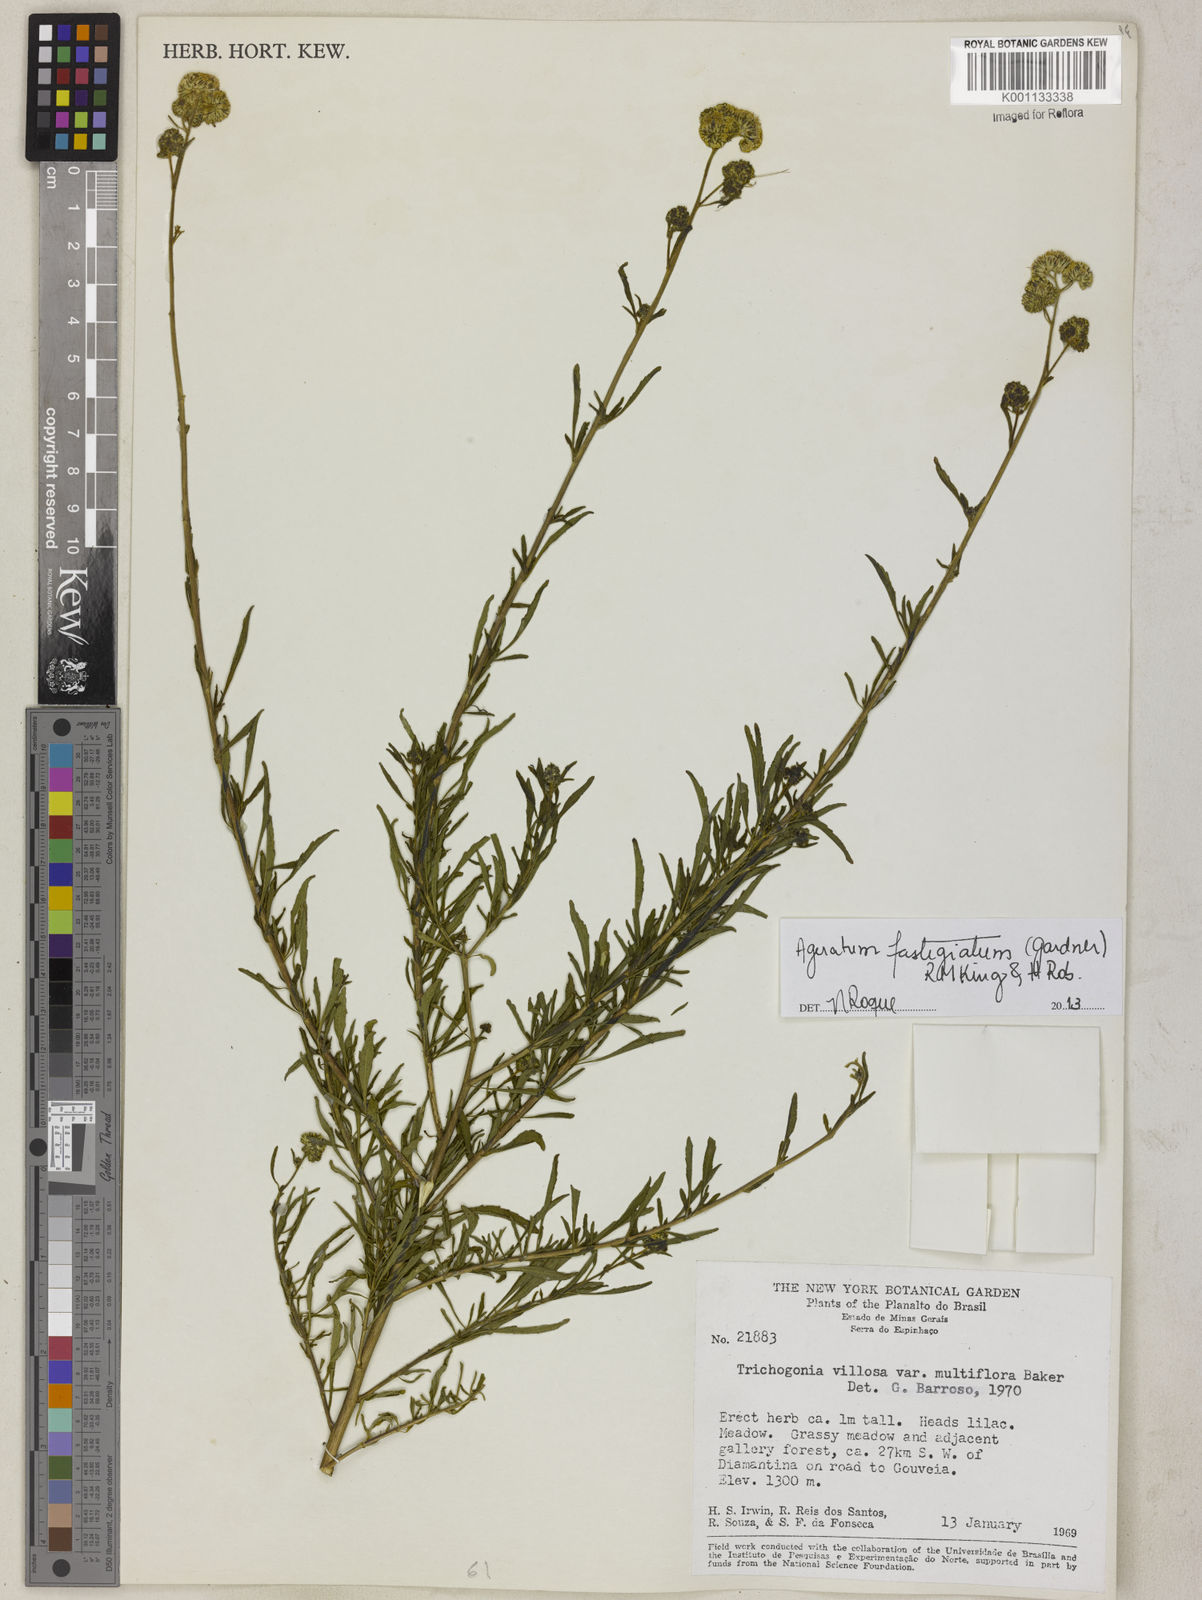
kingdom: Plantae
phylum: Tracheophyta
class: Magnoliopsida
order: Asterales
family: Asteraceae
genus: Ageratum
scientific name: Ageratum fastigiatum
